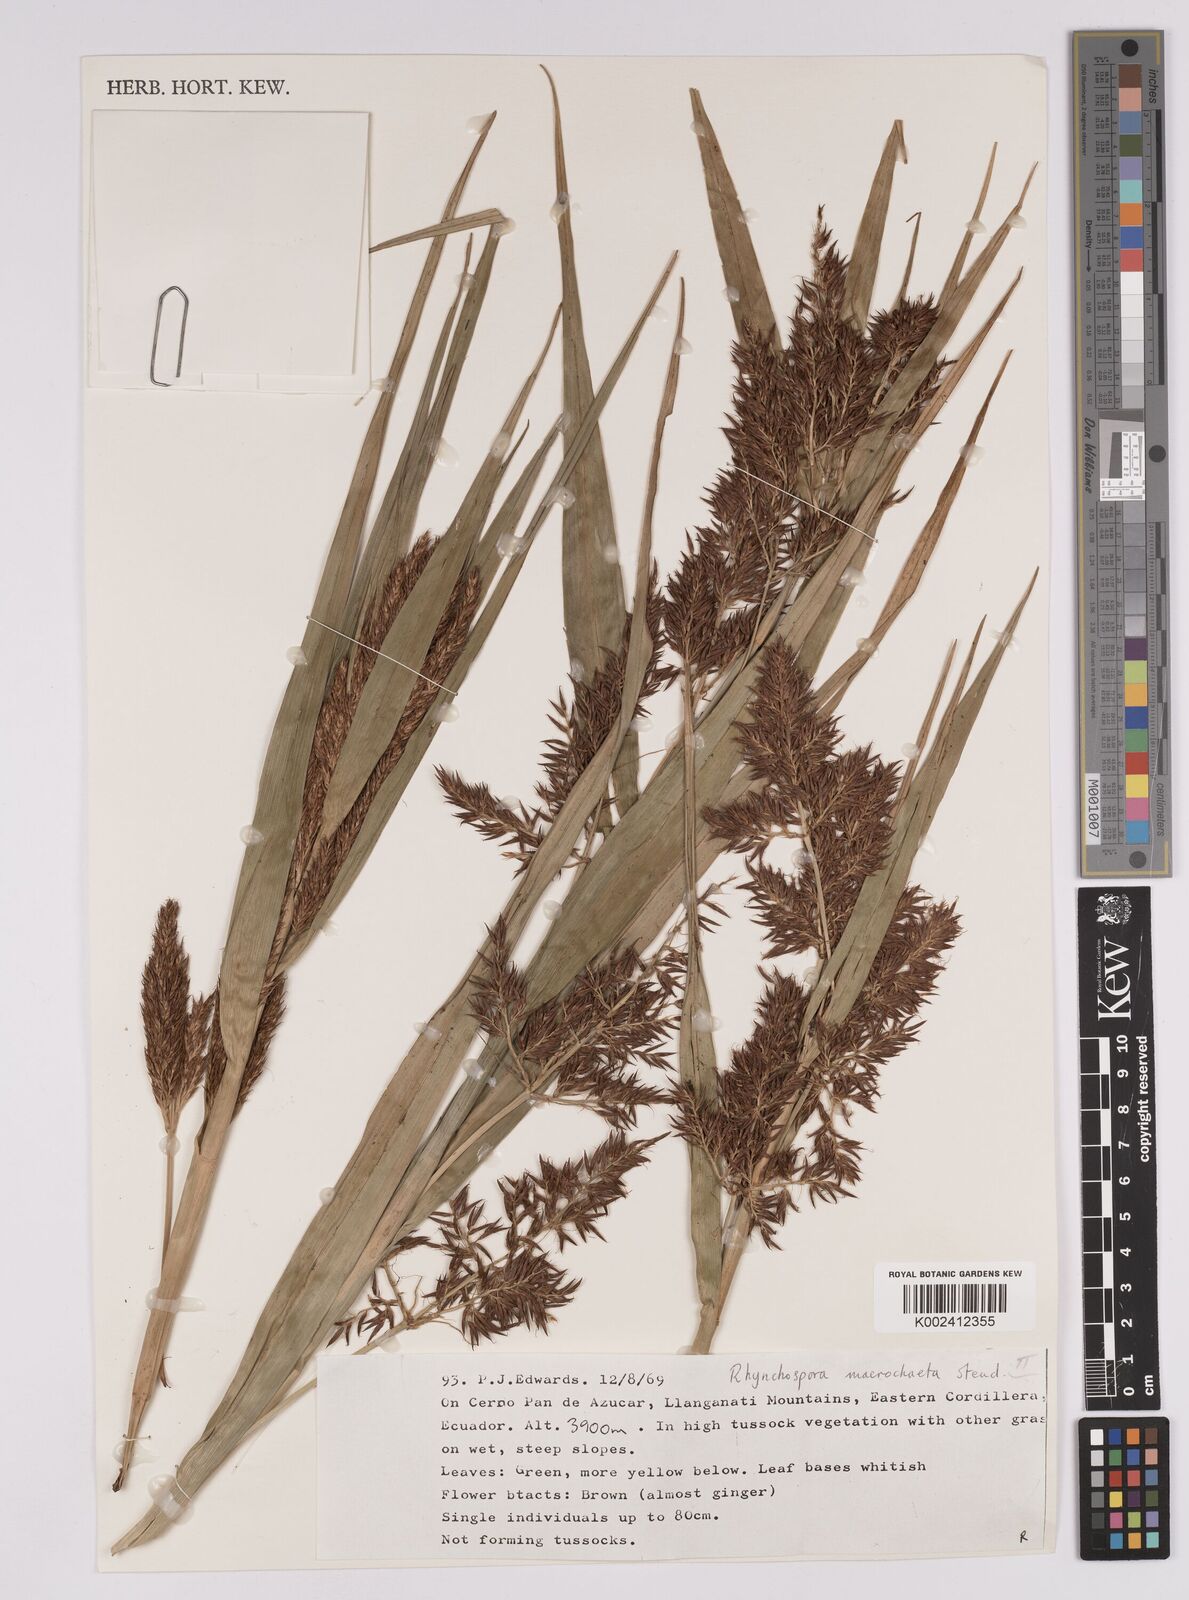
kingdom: Plantae
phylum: Tracheophyta
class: Liliopsida
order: Poales
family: Cyperaceae
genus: Rhynchospora
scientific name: Rhynchospora macrochaeta
